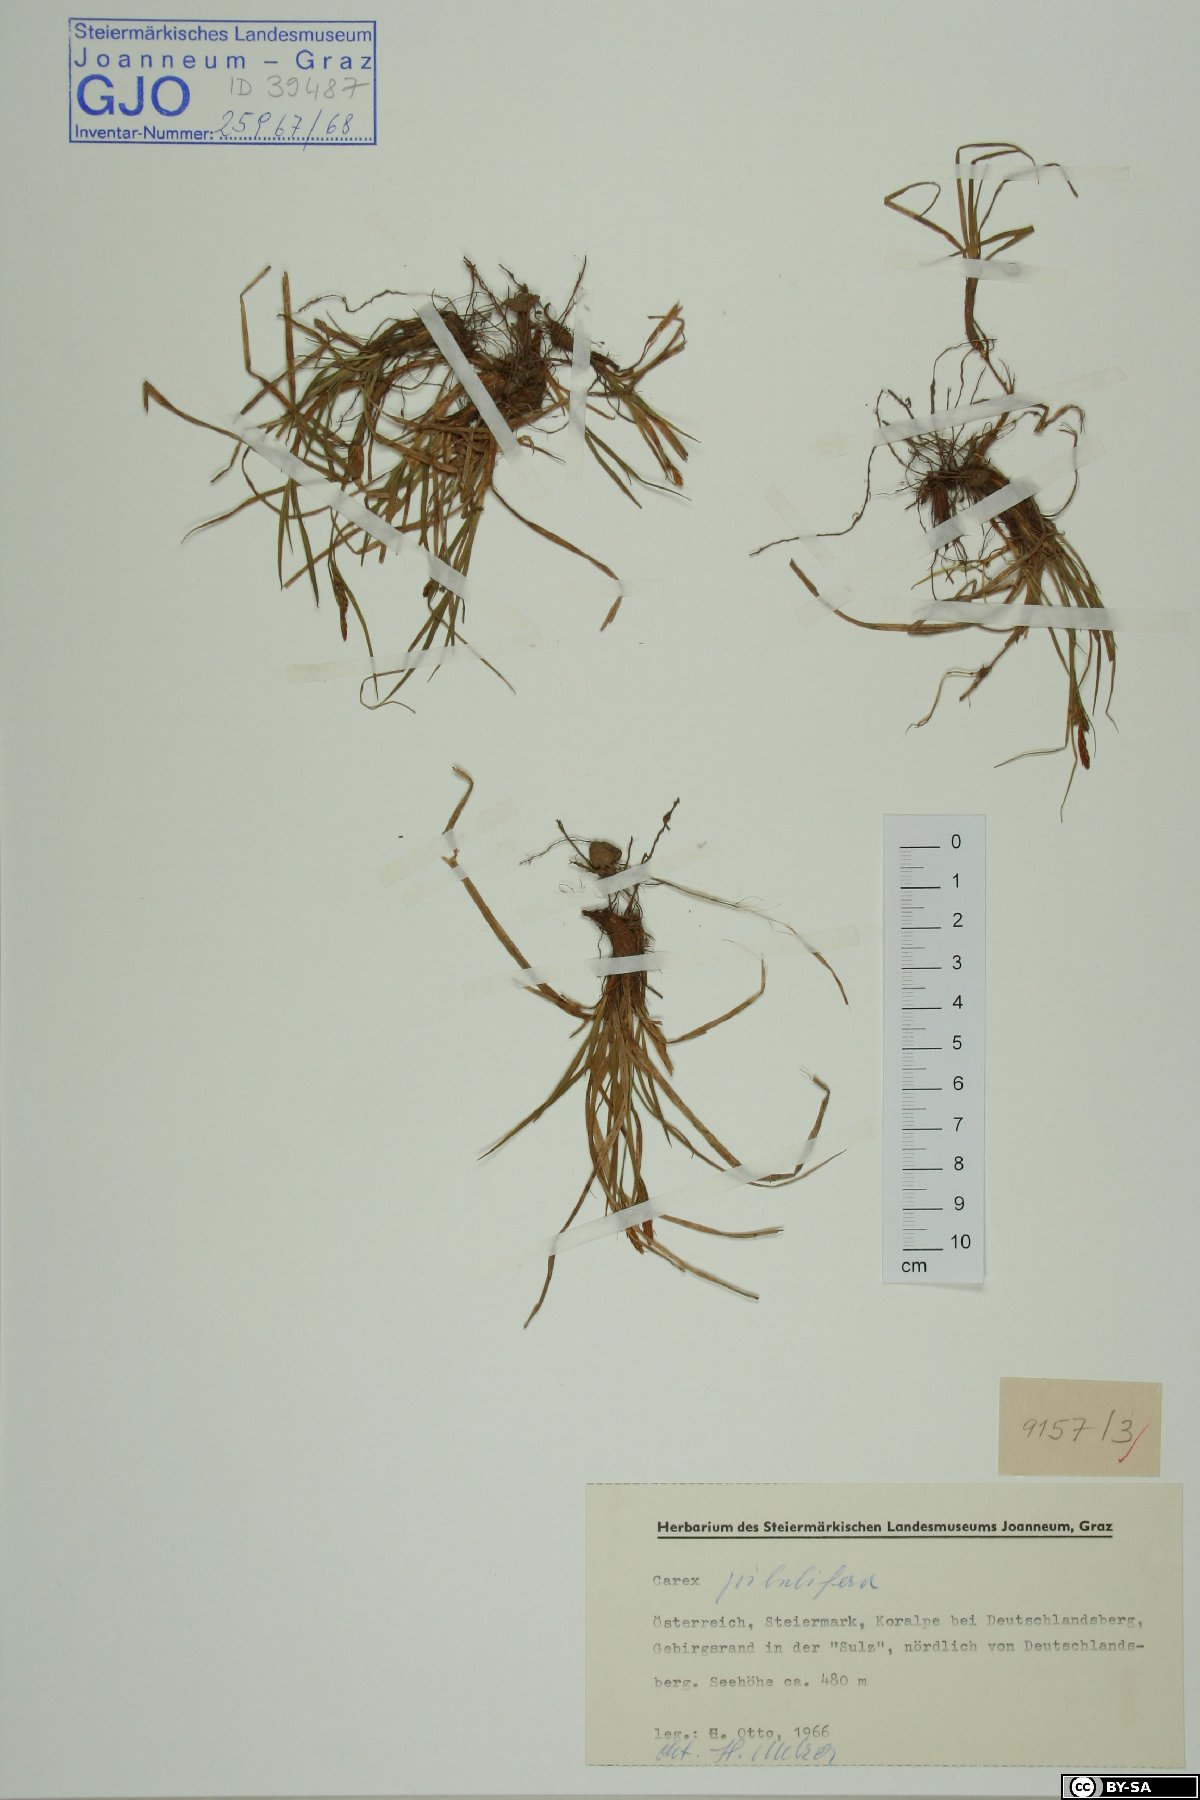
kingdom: Plantae
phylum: Tracheophyta
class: Liliopsida
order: Poales
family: Cyperaceae
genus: Carex
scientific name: Carex pilulifera
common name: Pill sedge
